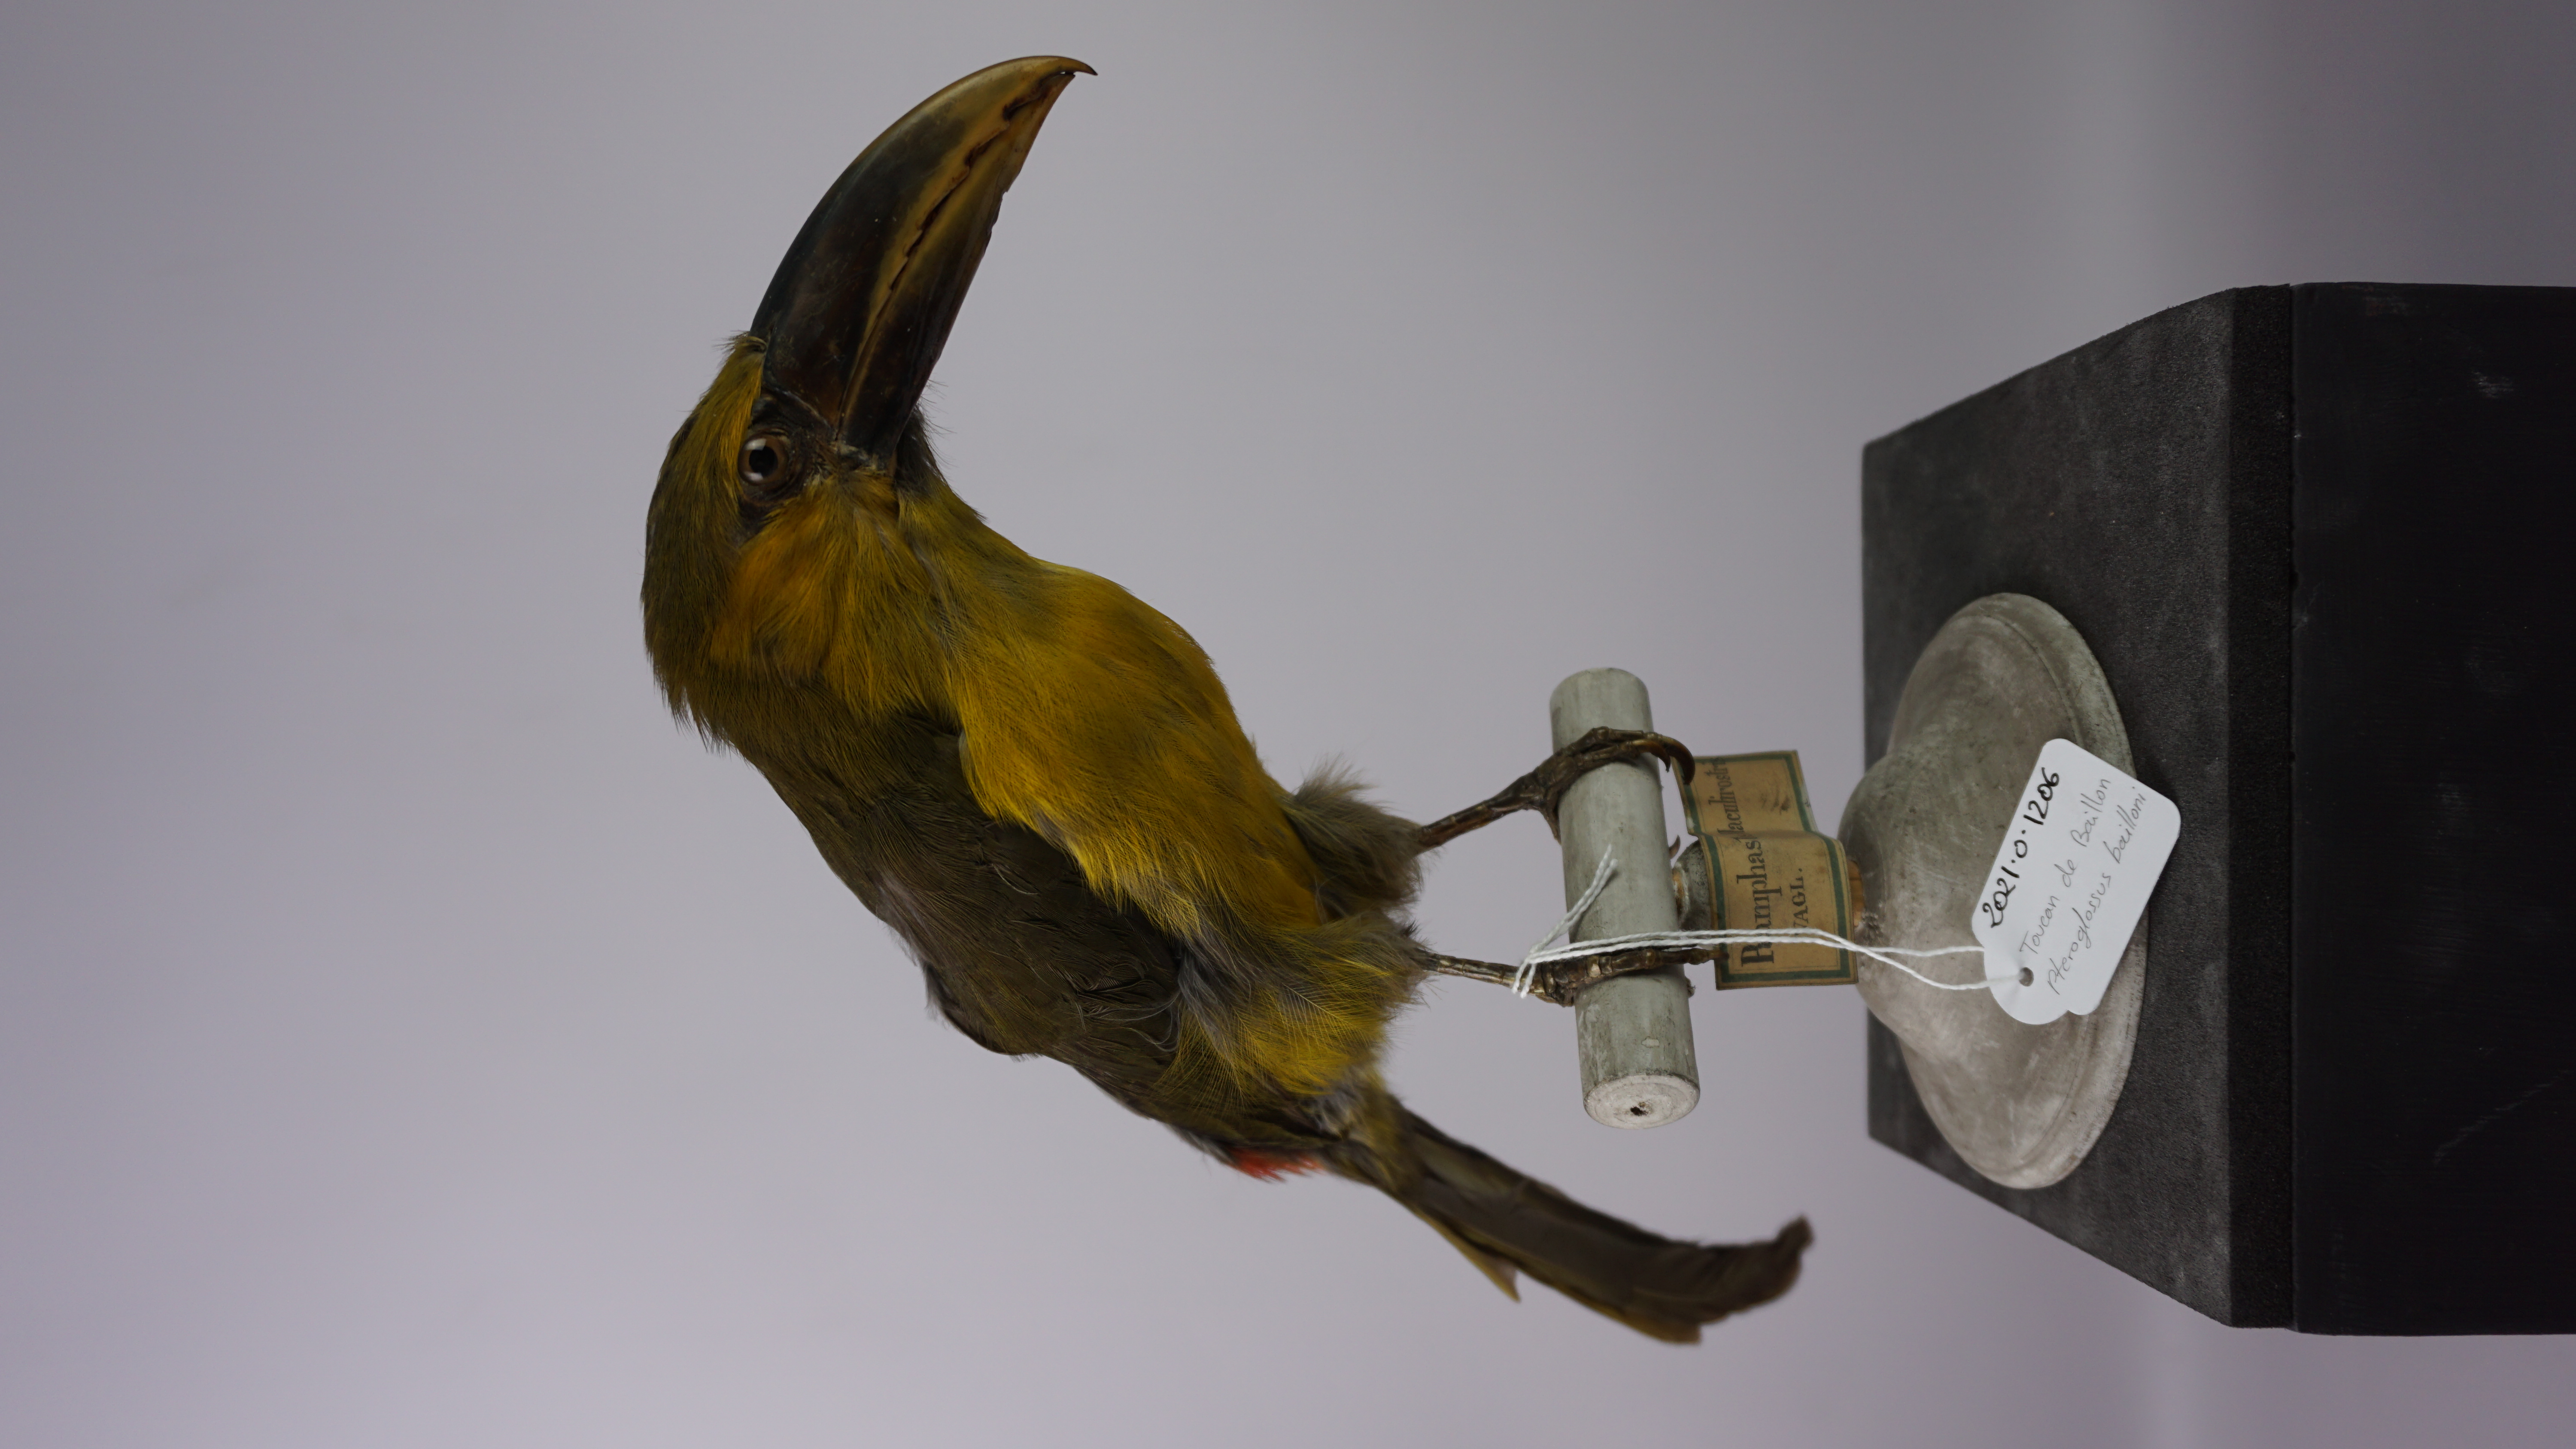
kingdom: Animalia
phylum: Chordata
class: Aves
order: Piciformes
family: Ramphastidae
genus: Pteroglossus
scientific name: Pteroglossus bailloni
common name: Saffron toucanet
